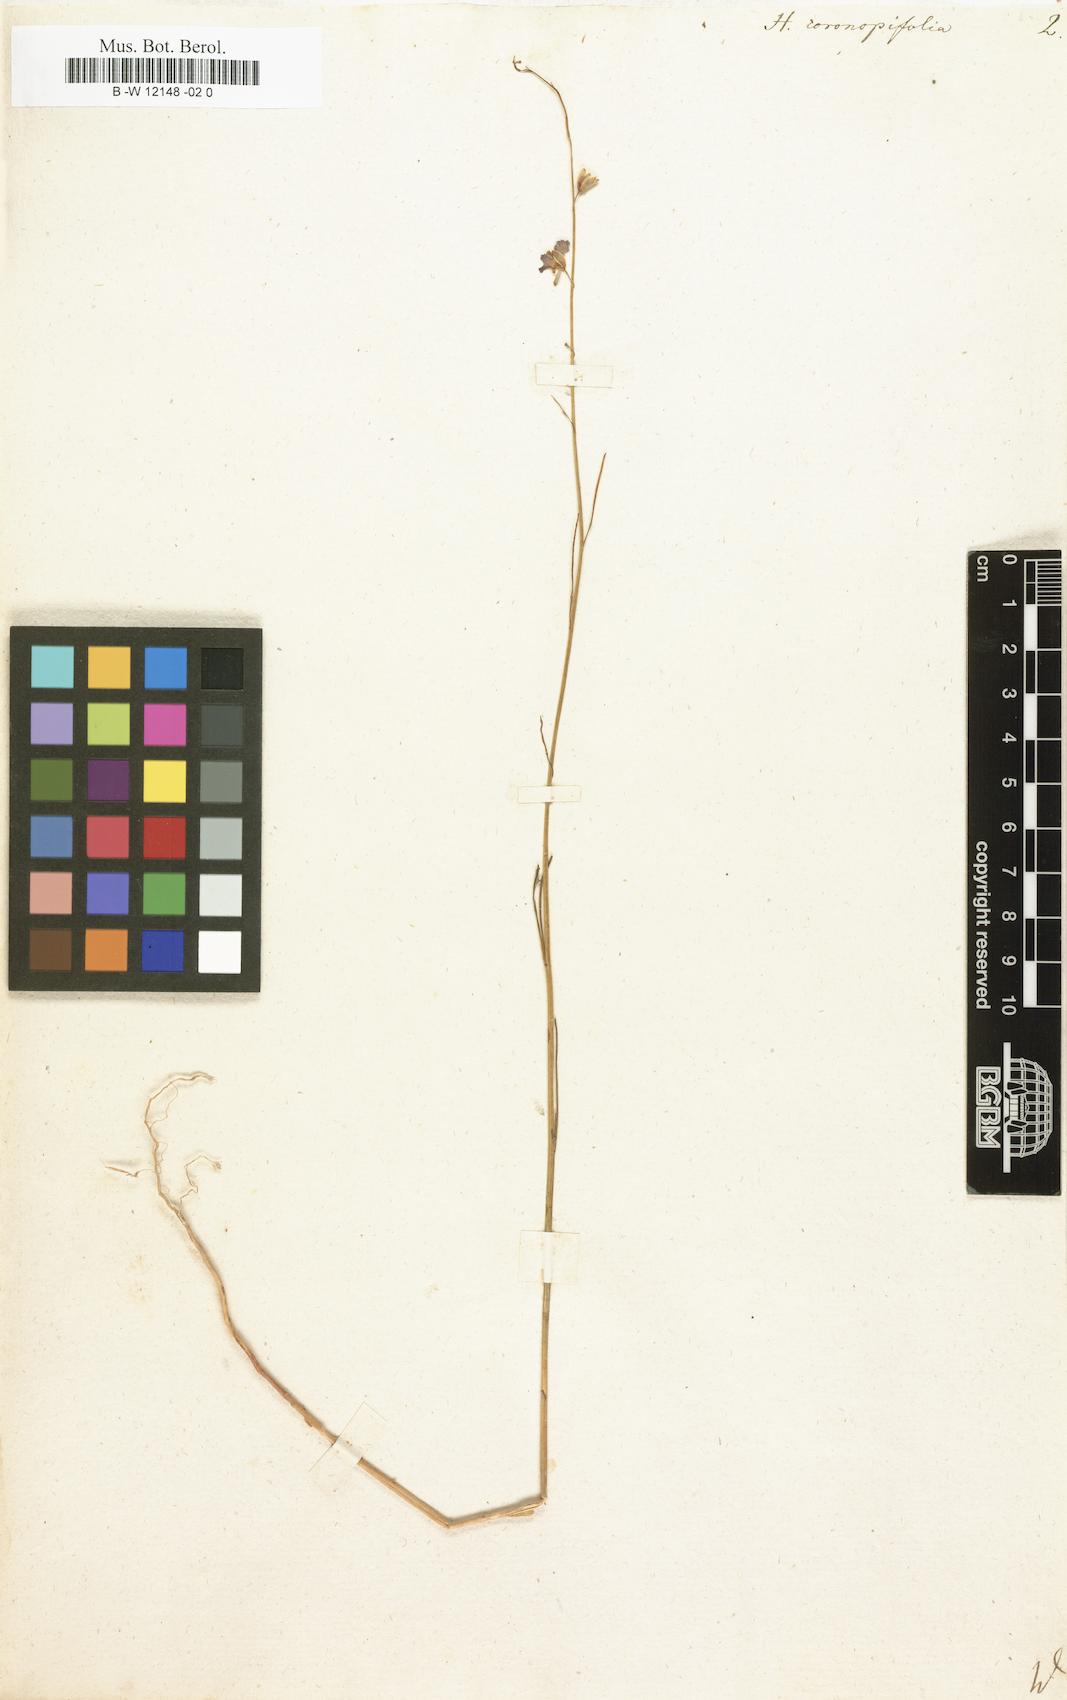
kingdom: Plantae
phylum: Tracheophyta
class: Magnoliopsida
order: Brassicales
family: Brassicaceae
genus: Matthiola
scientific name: Matthiola fruticulosa
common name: Sad stock
